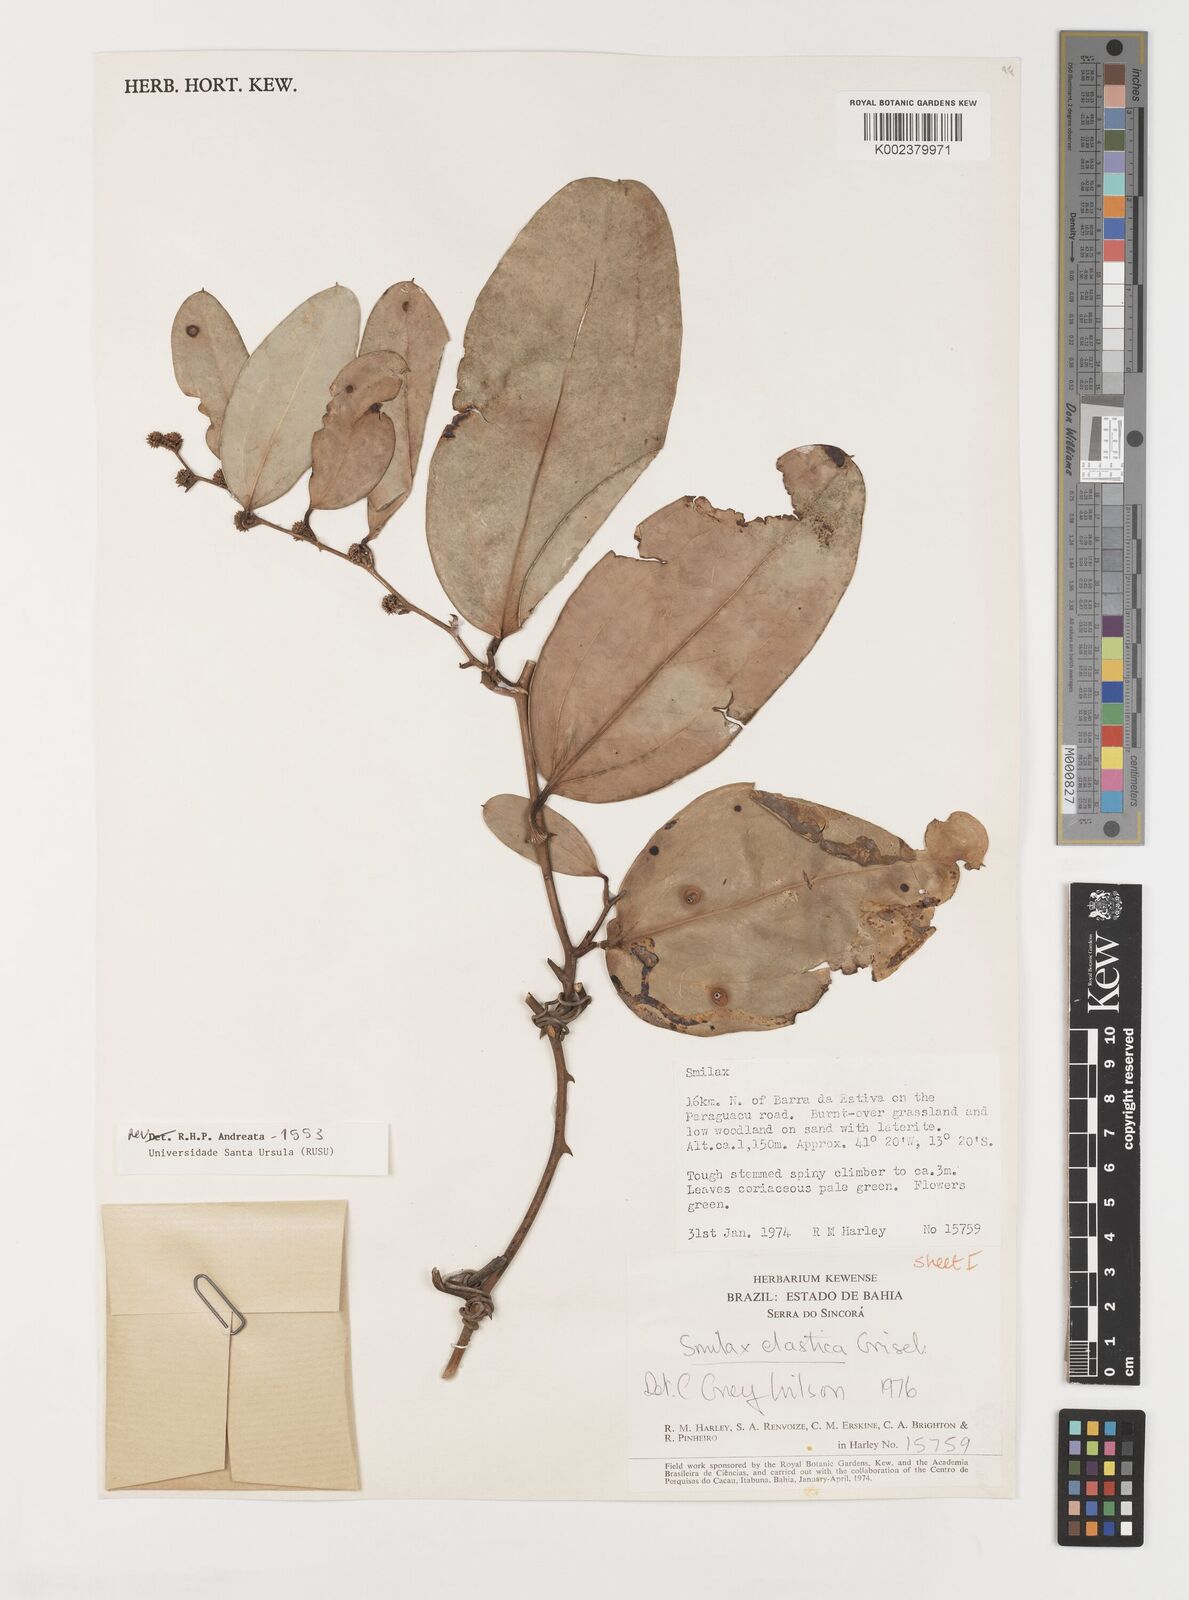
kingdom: Plantae
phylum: Tracheophyta
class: Liliopsida
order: Liliales
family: Smilacaceae
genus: Smilax
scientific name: Smilax elastica
